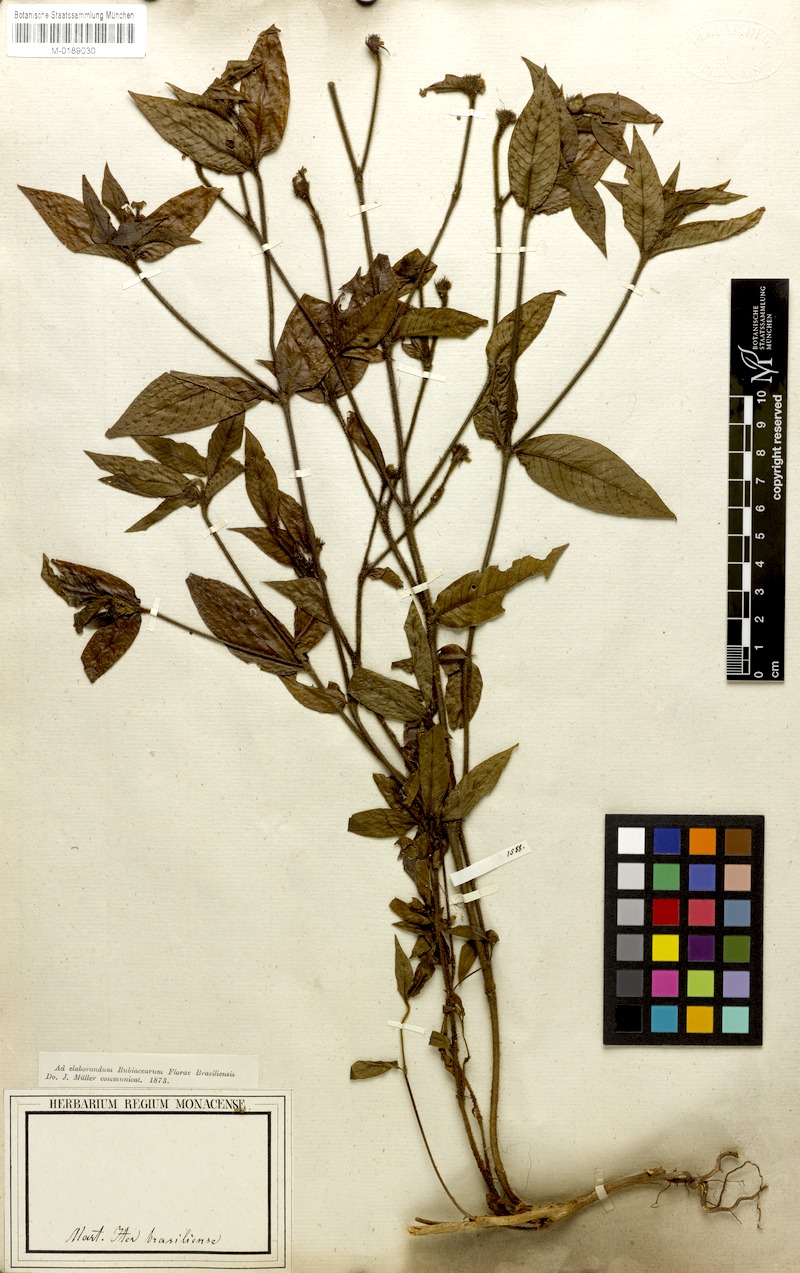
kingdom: Plantae
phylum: Tracheophyta
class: Magnoliopsida
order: Gentianales
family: Rubiaceae
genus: Palicourea
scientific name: Palicourea iodotricha
